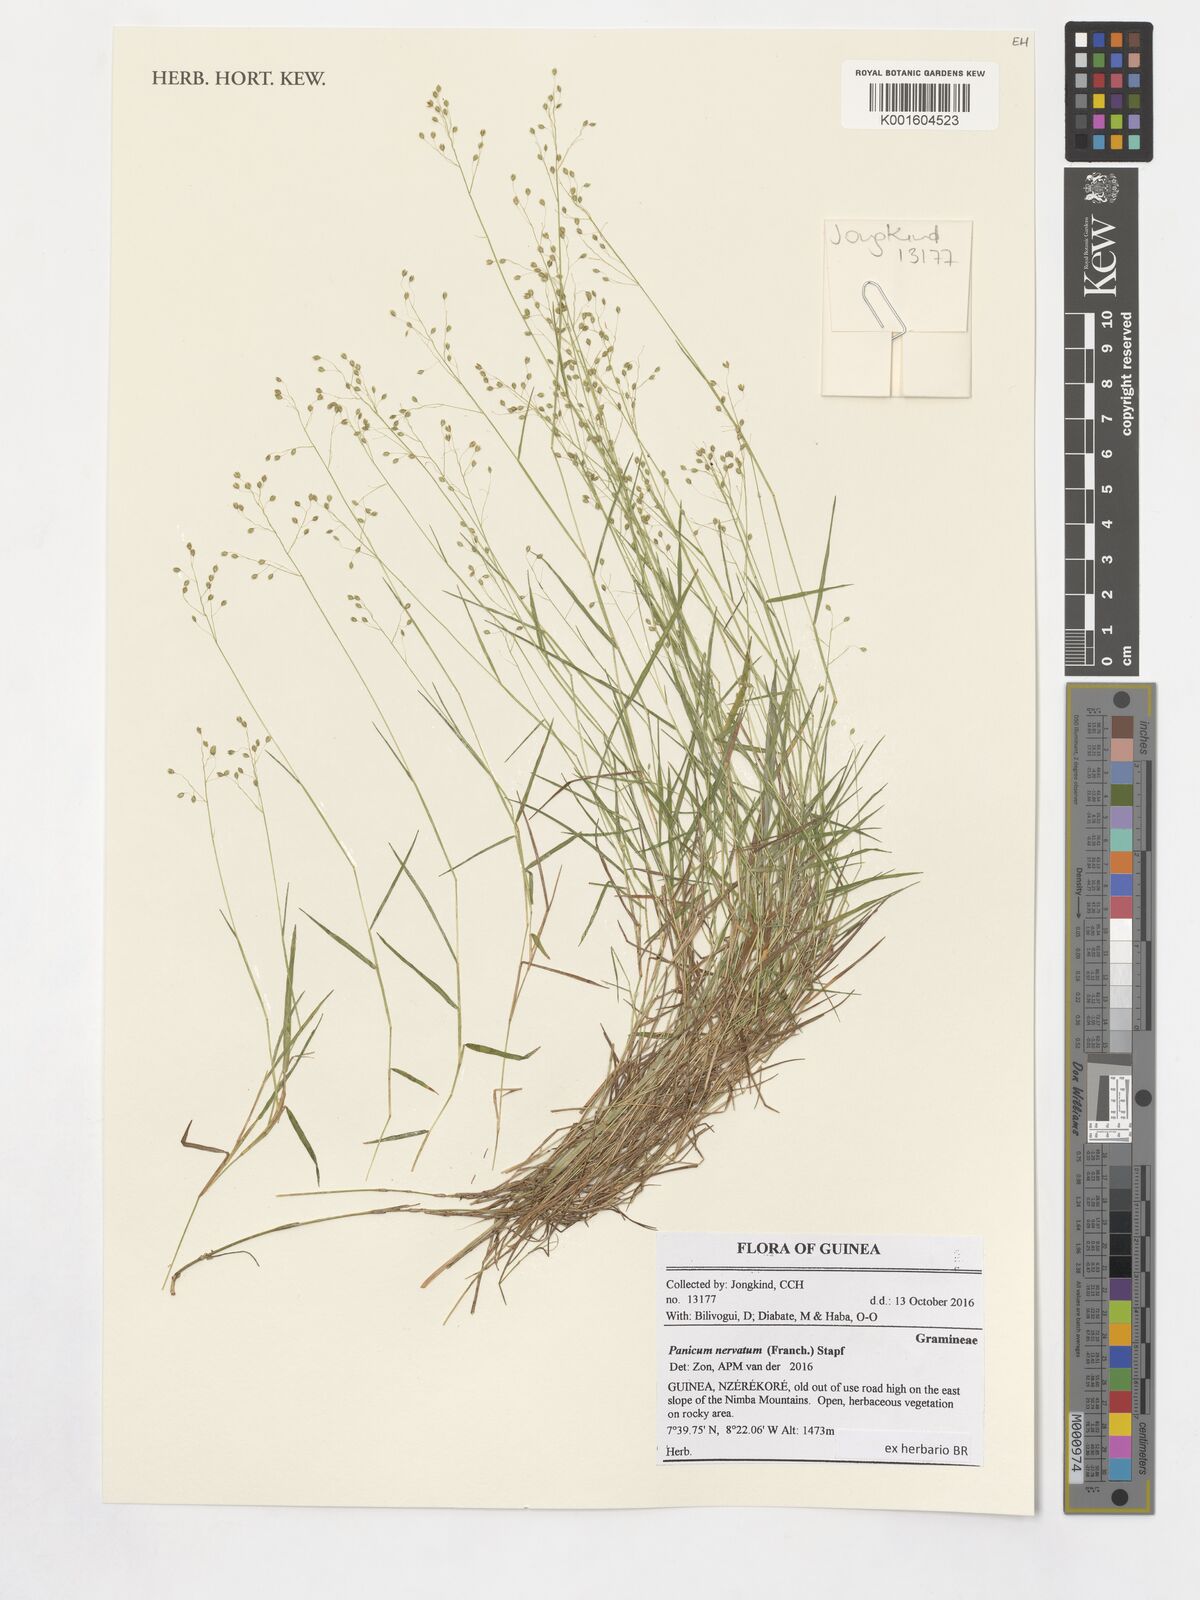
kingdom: Plantae
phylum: Tracheophyta
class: Liliopsida
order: Poales
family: Poaceae
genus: Trichanthecium
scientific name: Trichanthecium nervatum
